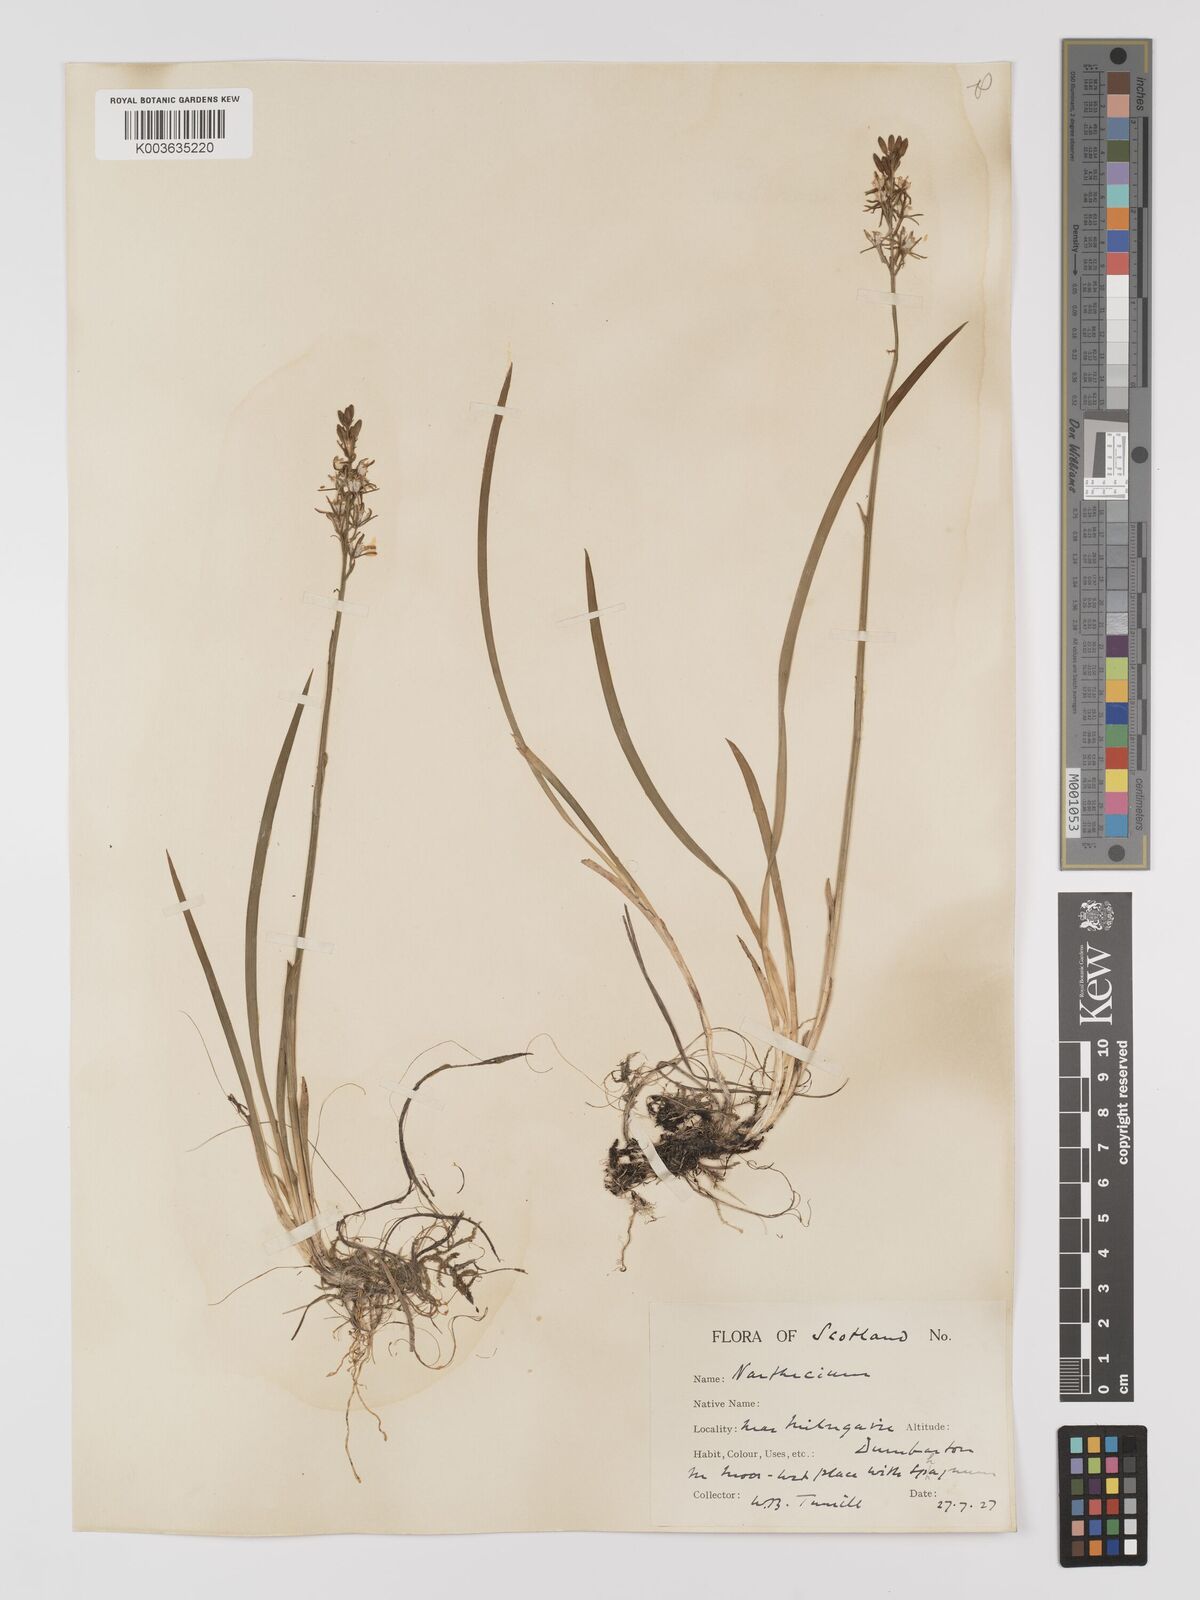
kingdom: Plantae
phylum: Tracheophyta
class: Liliopsida
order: Dioscoreales
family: Nartheciaceae
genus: Narthecium
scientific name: Narthecium
